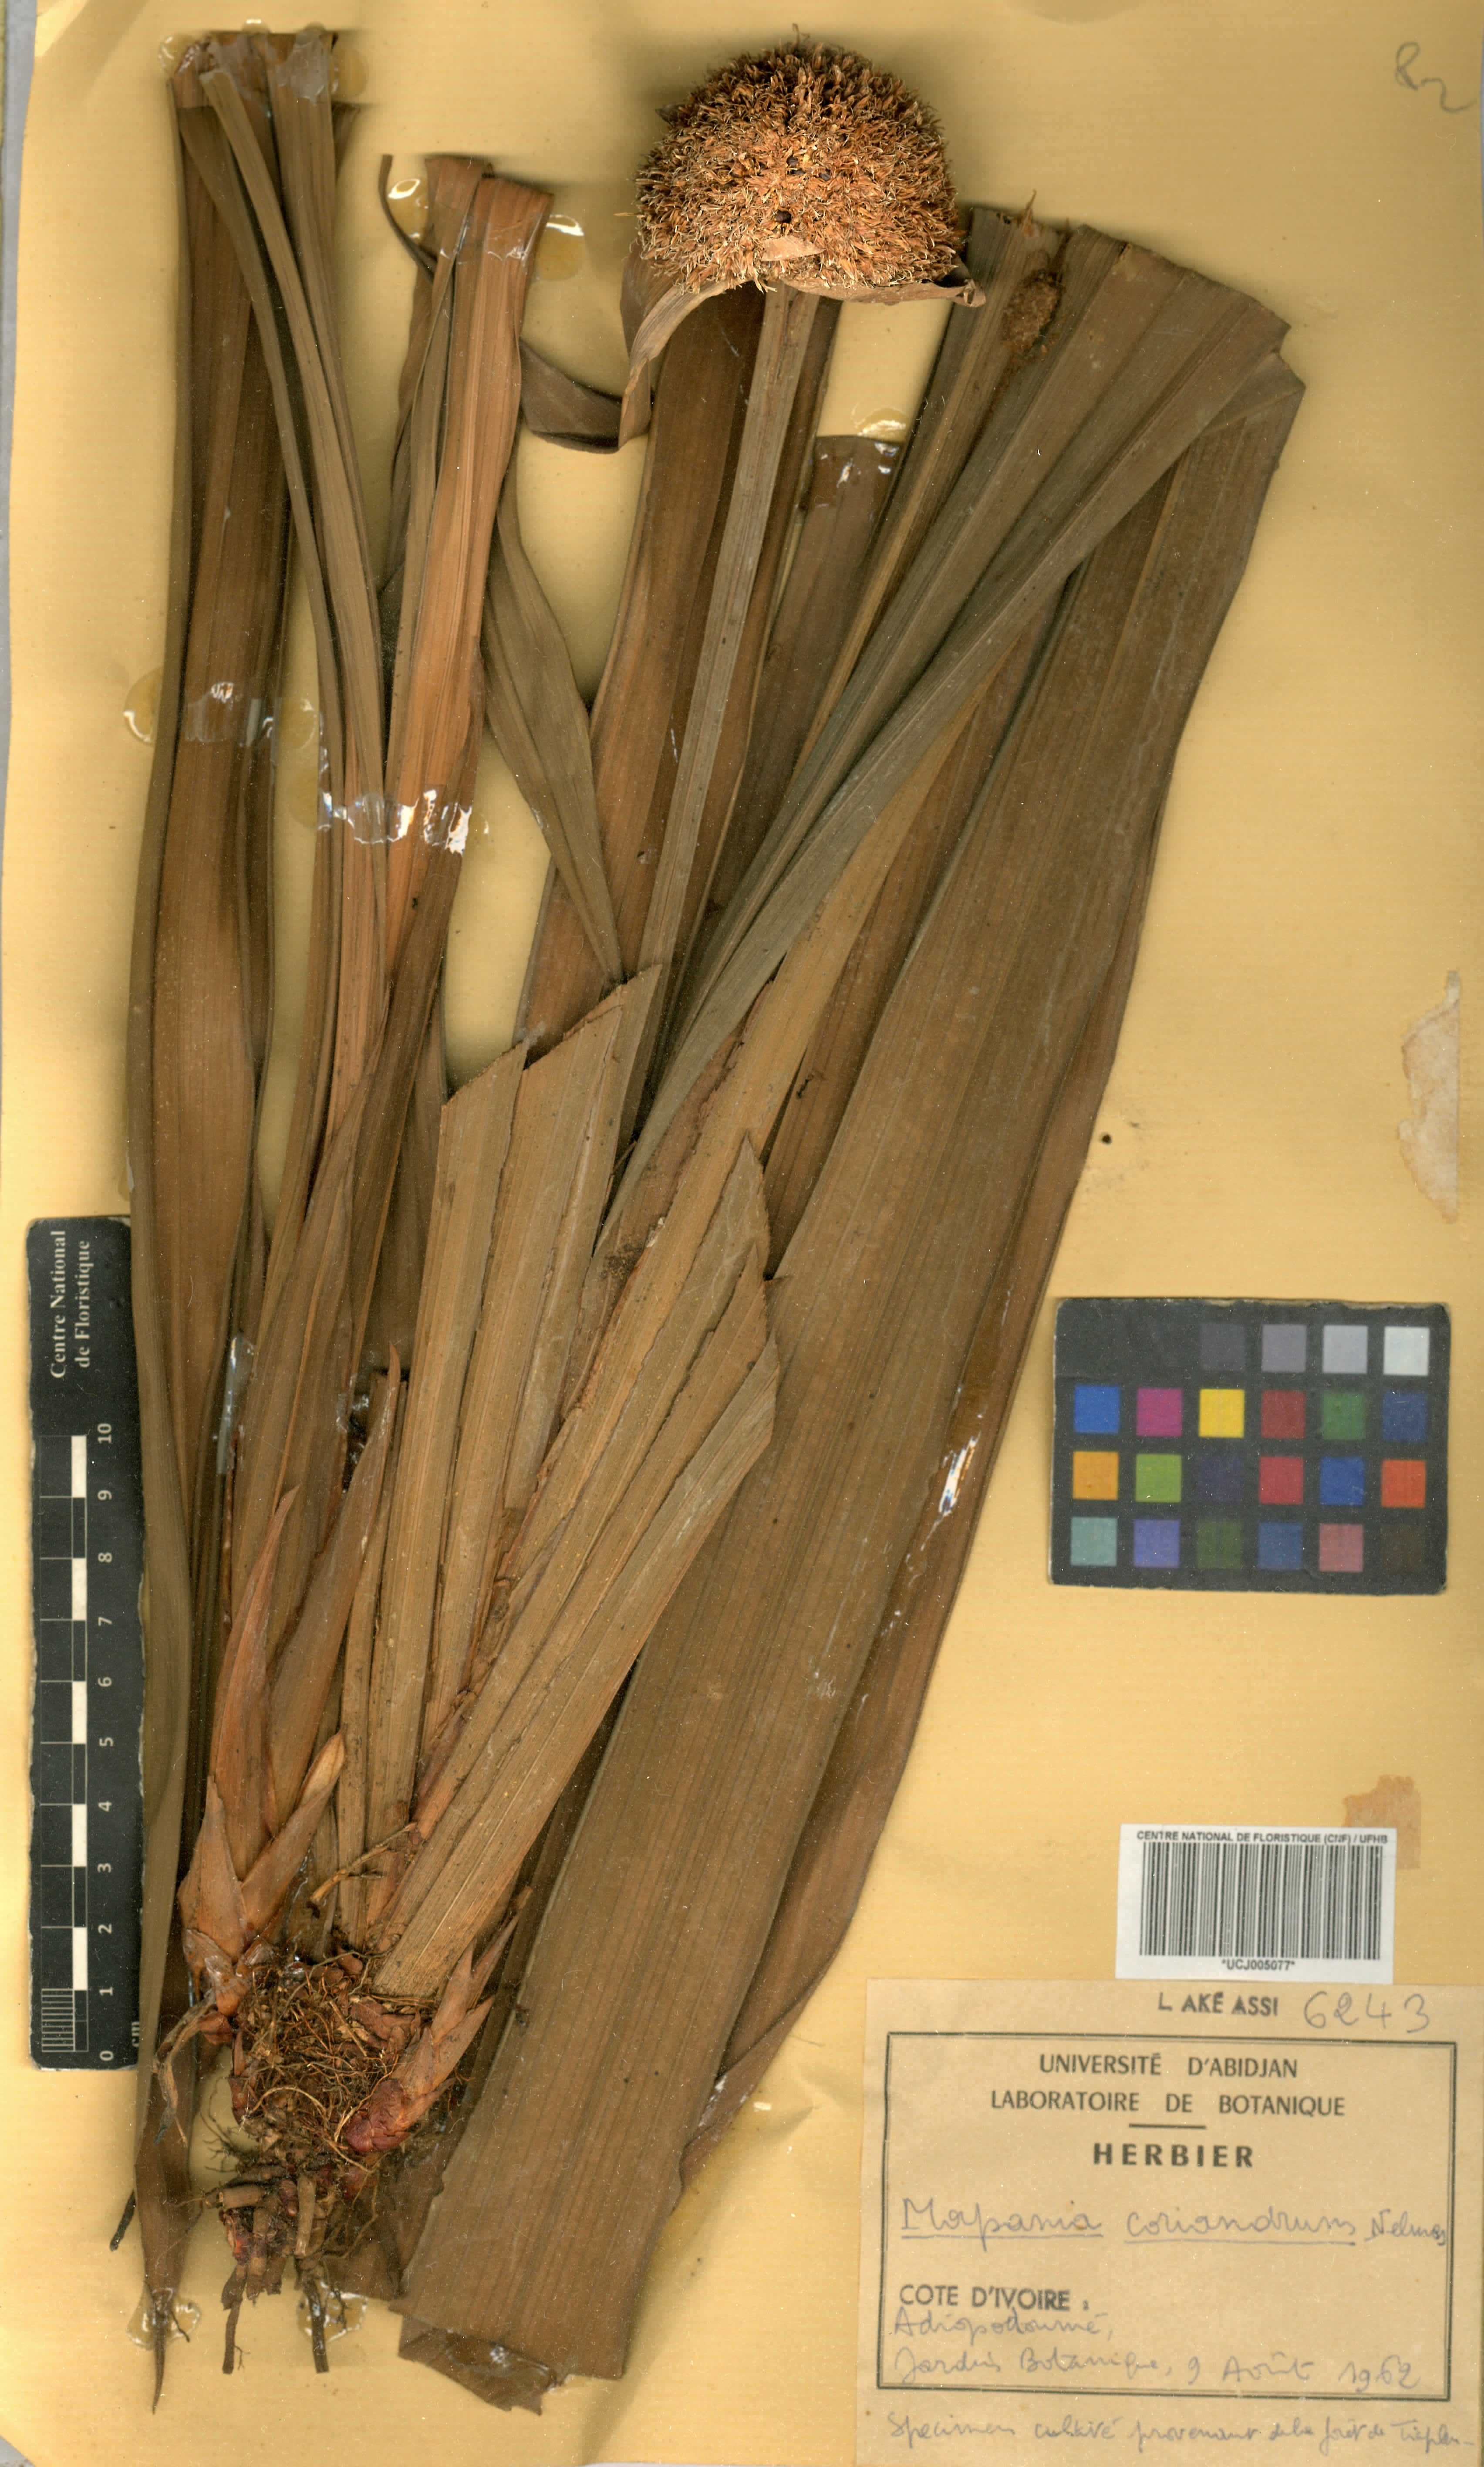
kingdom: Plantae
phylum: Tracheophyta
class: Liliopsida
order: Poales
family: Cyperaceae
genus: Mapania
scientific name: Mapania coriandrum
